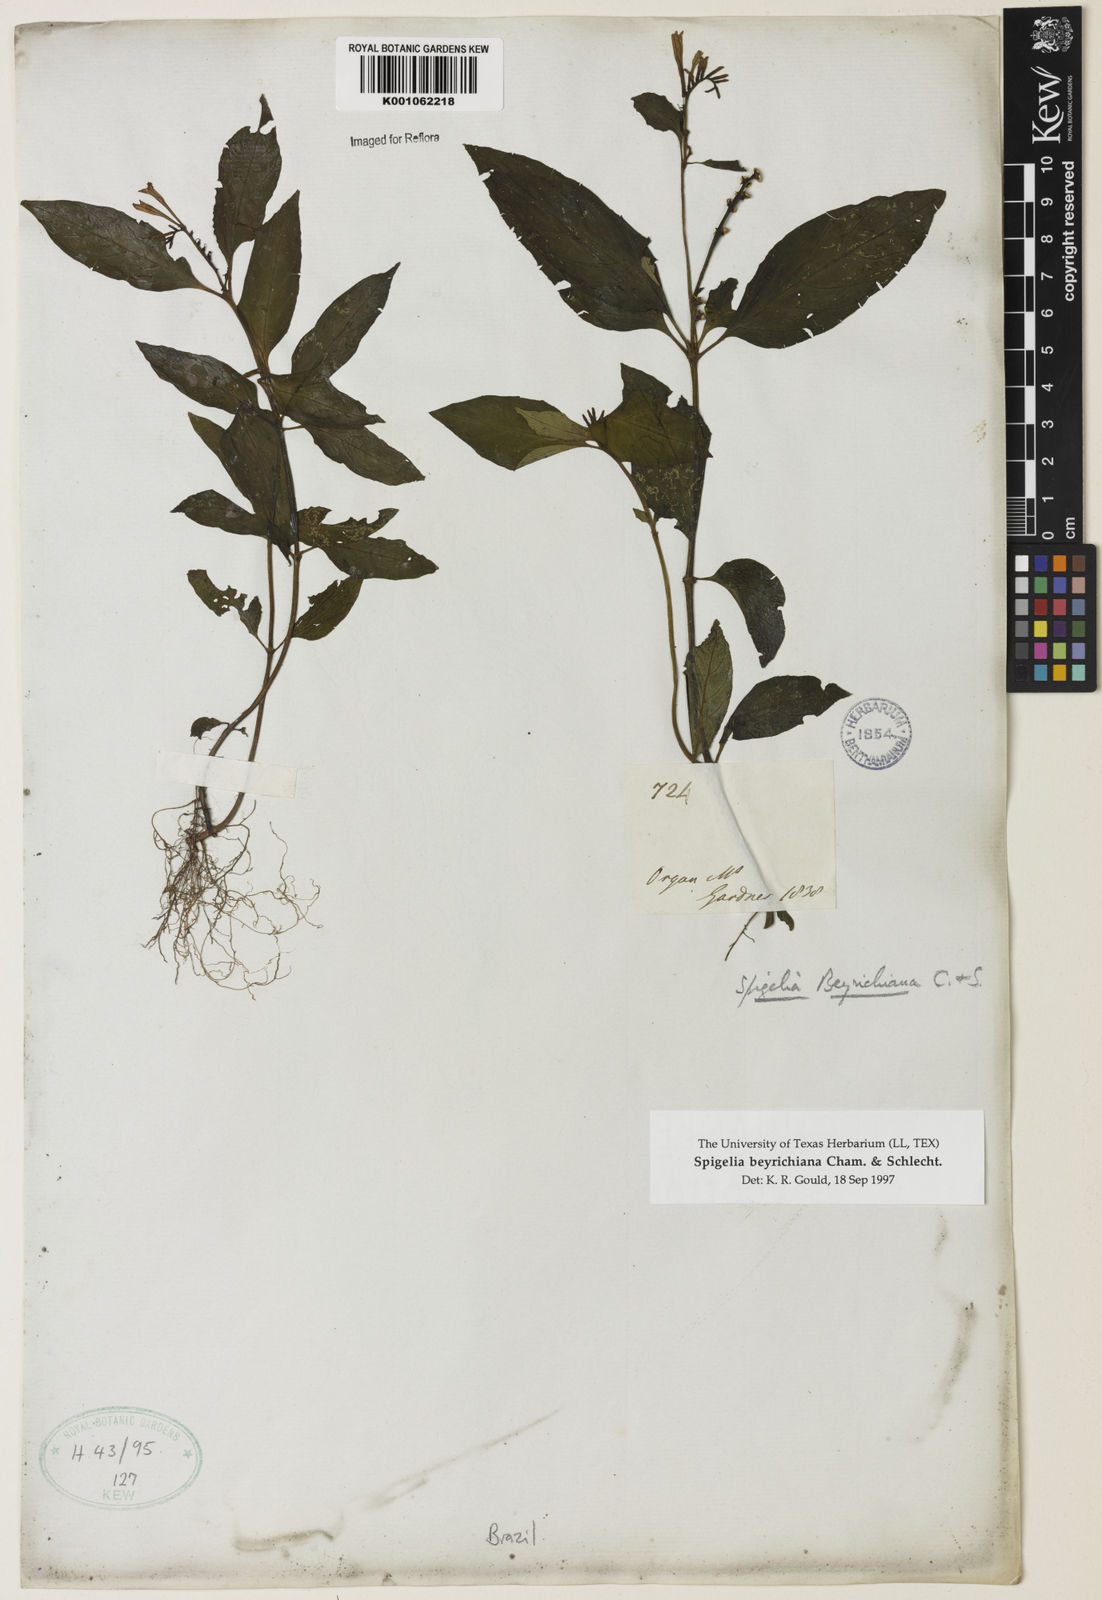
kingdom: Plantae
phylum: Tracheophyta
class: Magnoliopsida
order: Gentianales
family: Loganiaceae
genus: Spigelia
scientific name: Spigelia beyrichiana
